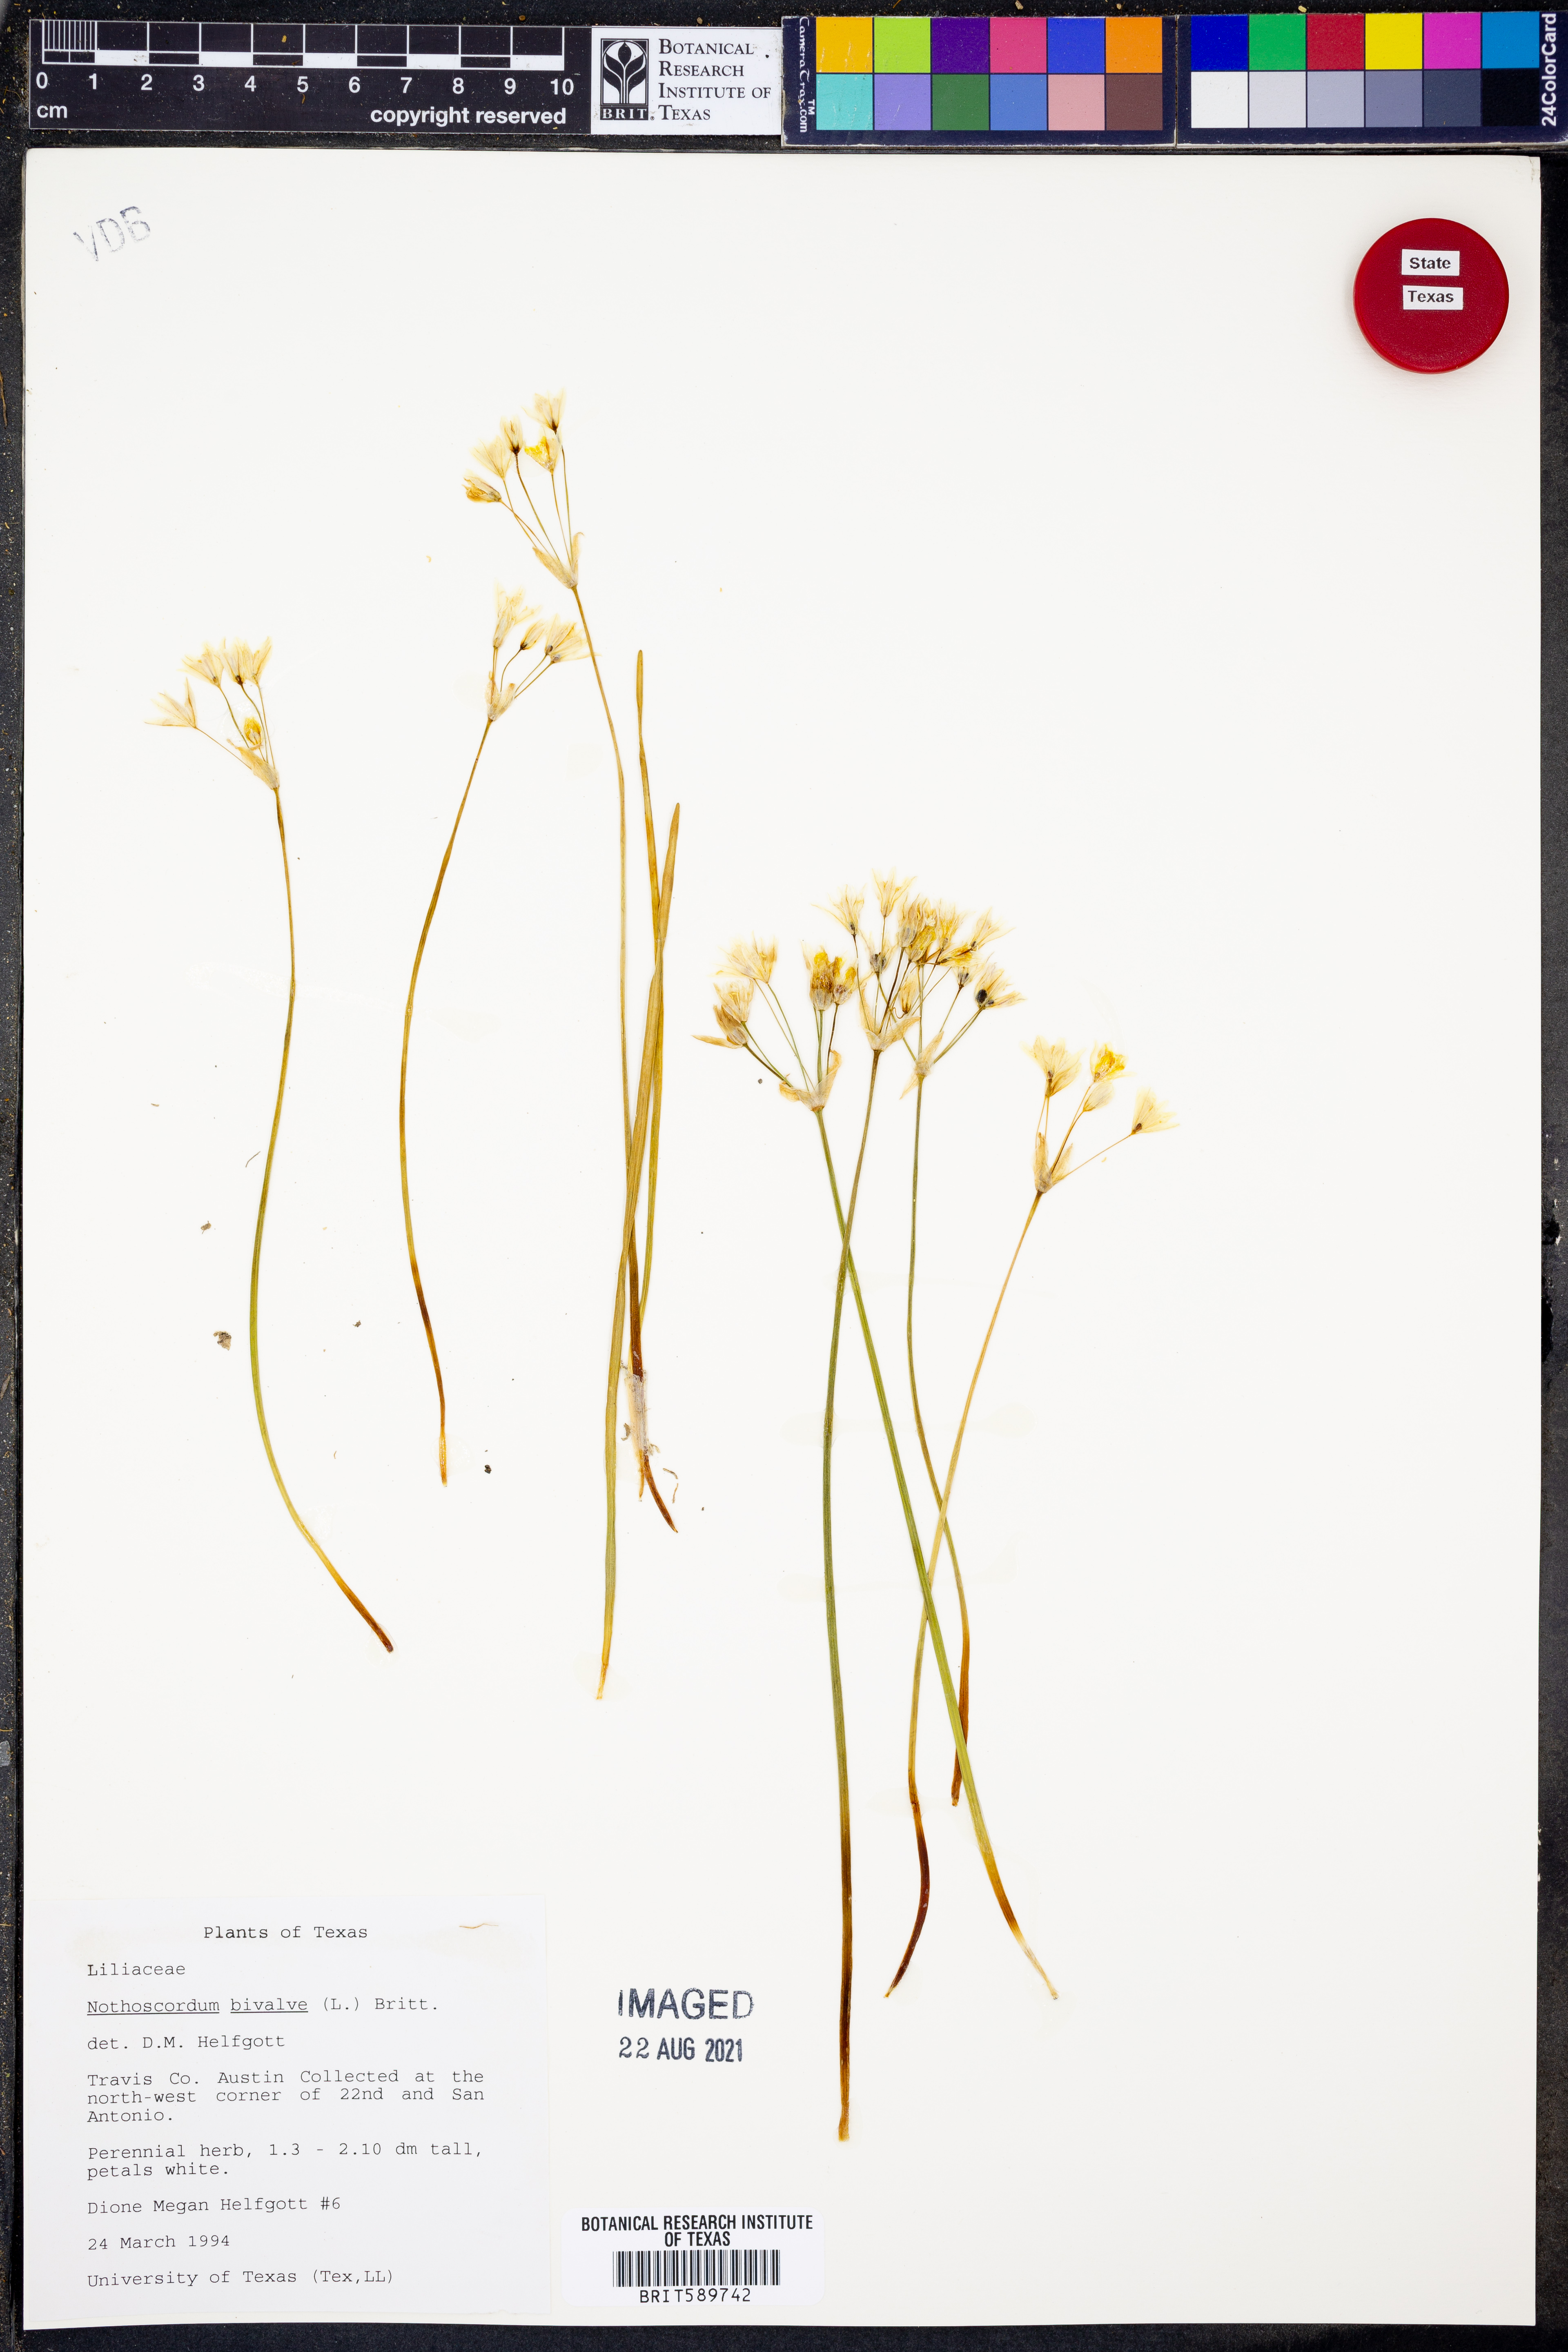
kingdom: Plantae
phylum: Tracheophyta
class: Liliopsida
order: Asparagales
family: Amaryllidaceae
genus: Nothoscordum
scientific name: Nothoscordum bivalve
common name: Crow-poison
